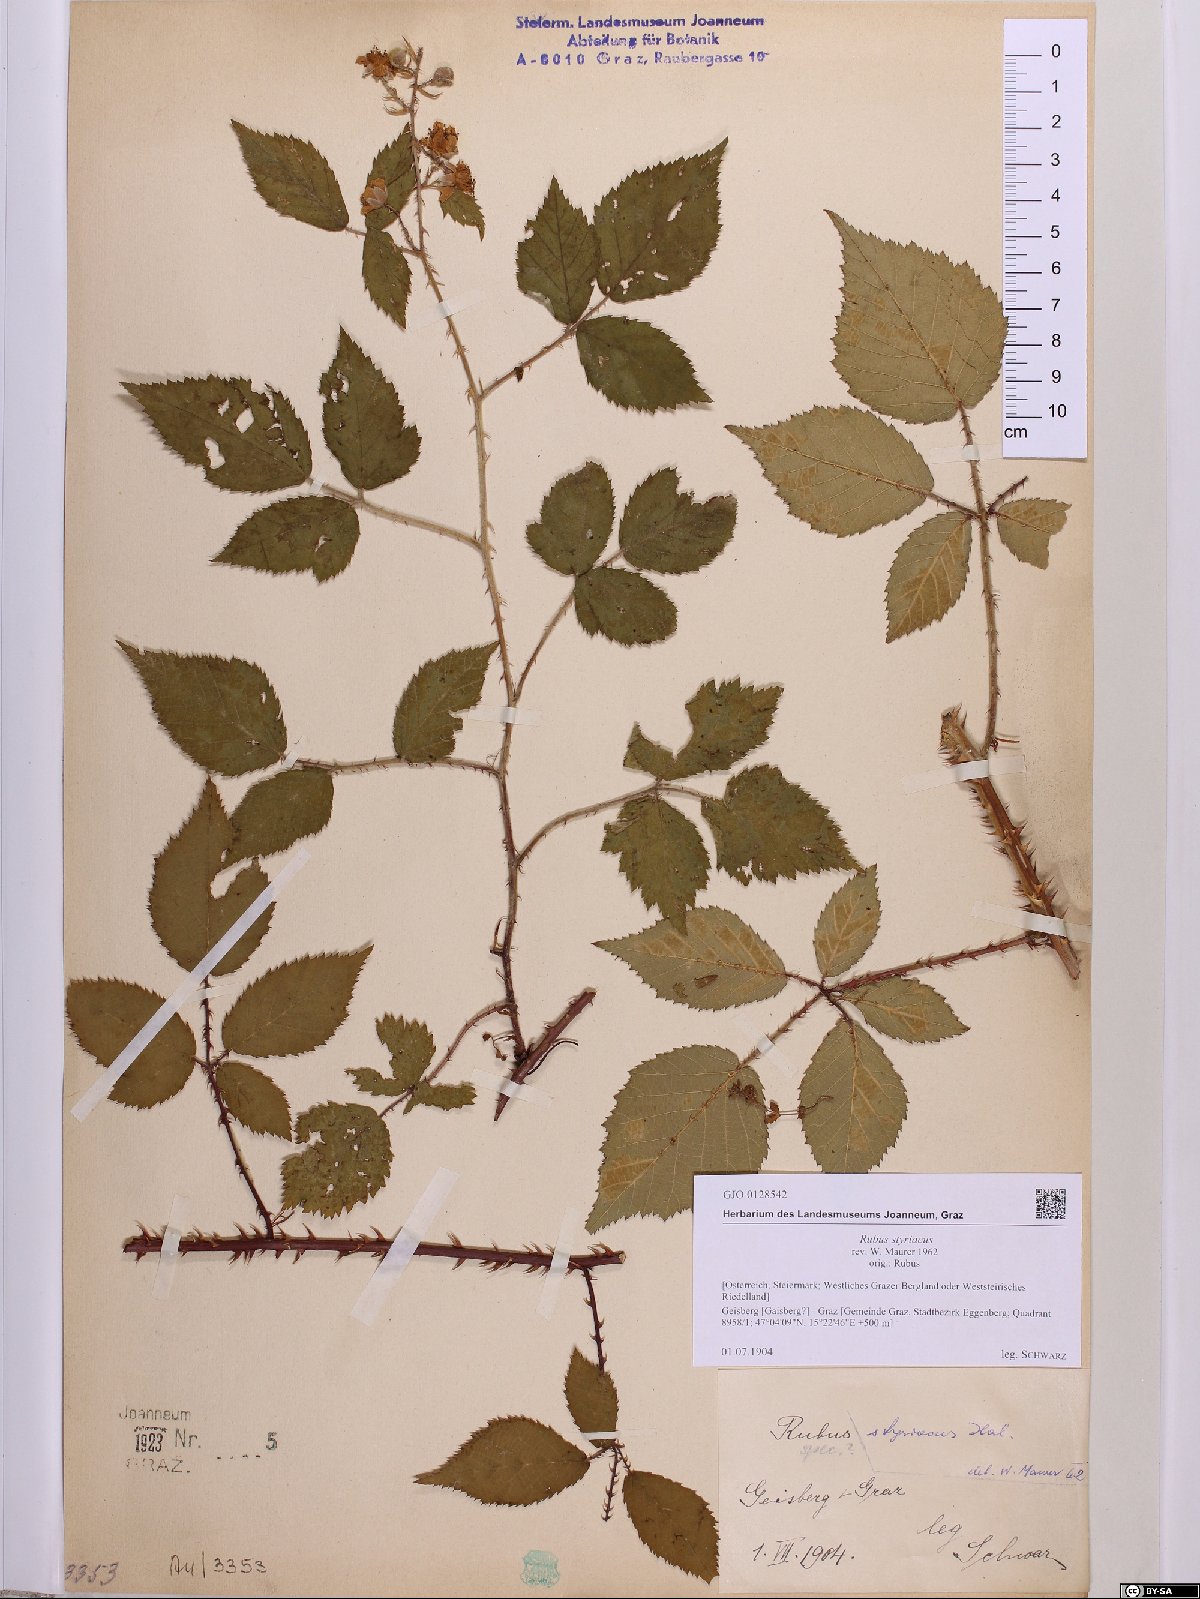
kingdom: Plantae
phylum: Tracheophyta
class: Magnoliopsida
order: Rosales
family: Rosaceae
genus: Rubus
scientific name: Rubus styriacus
